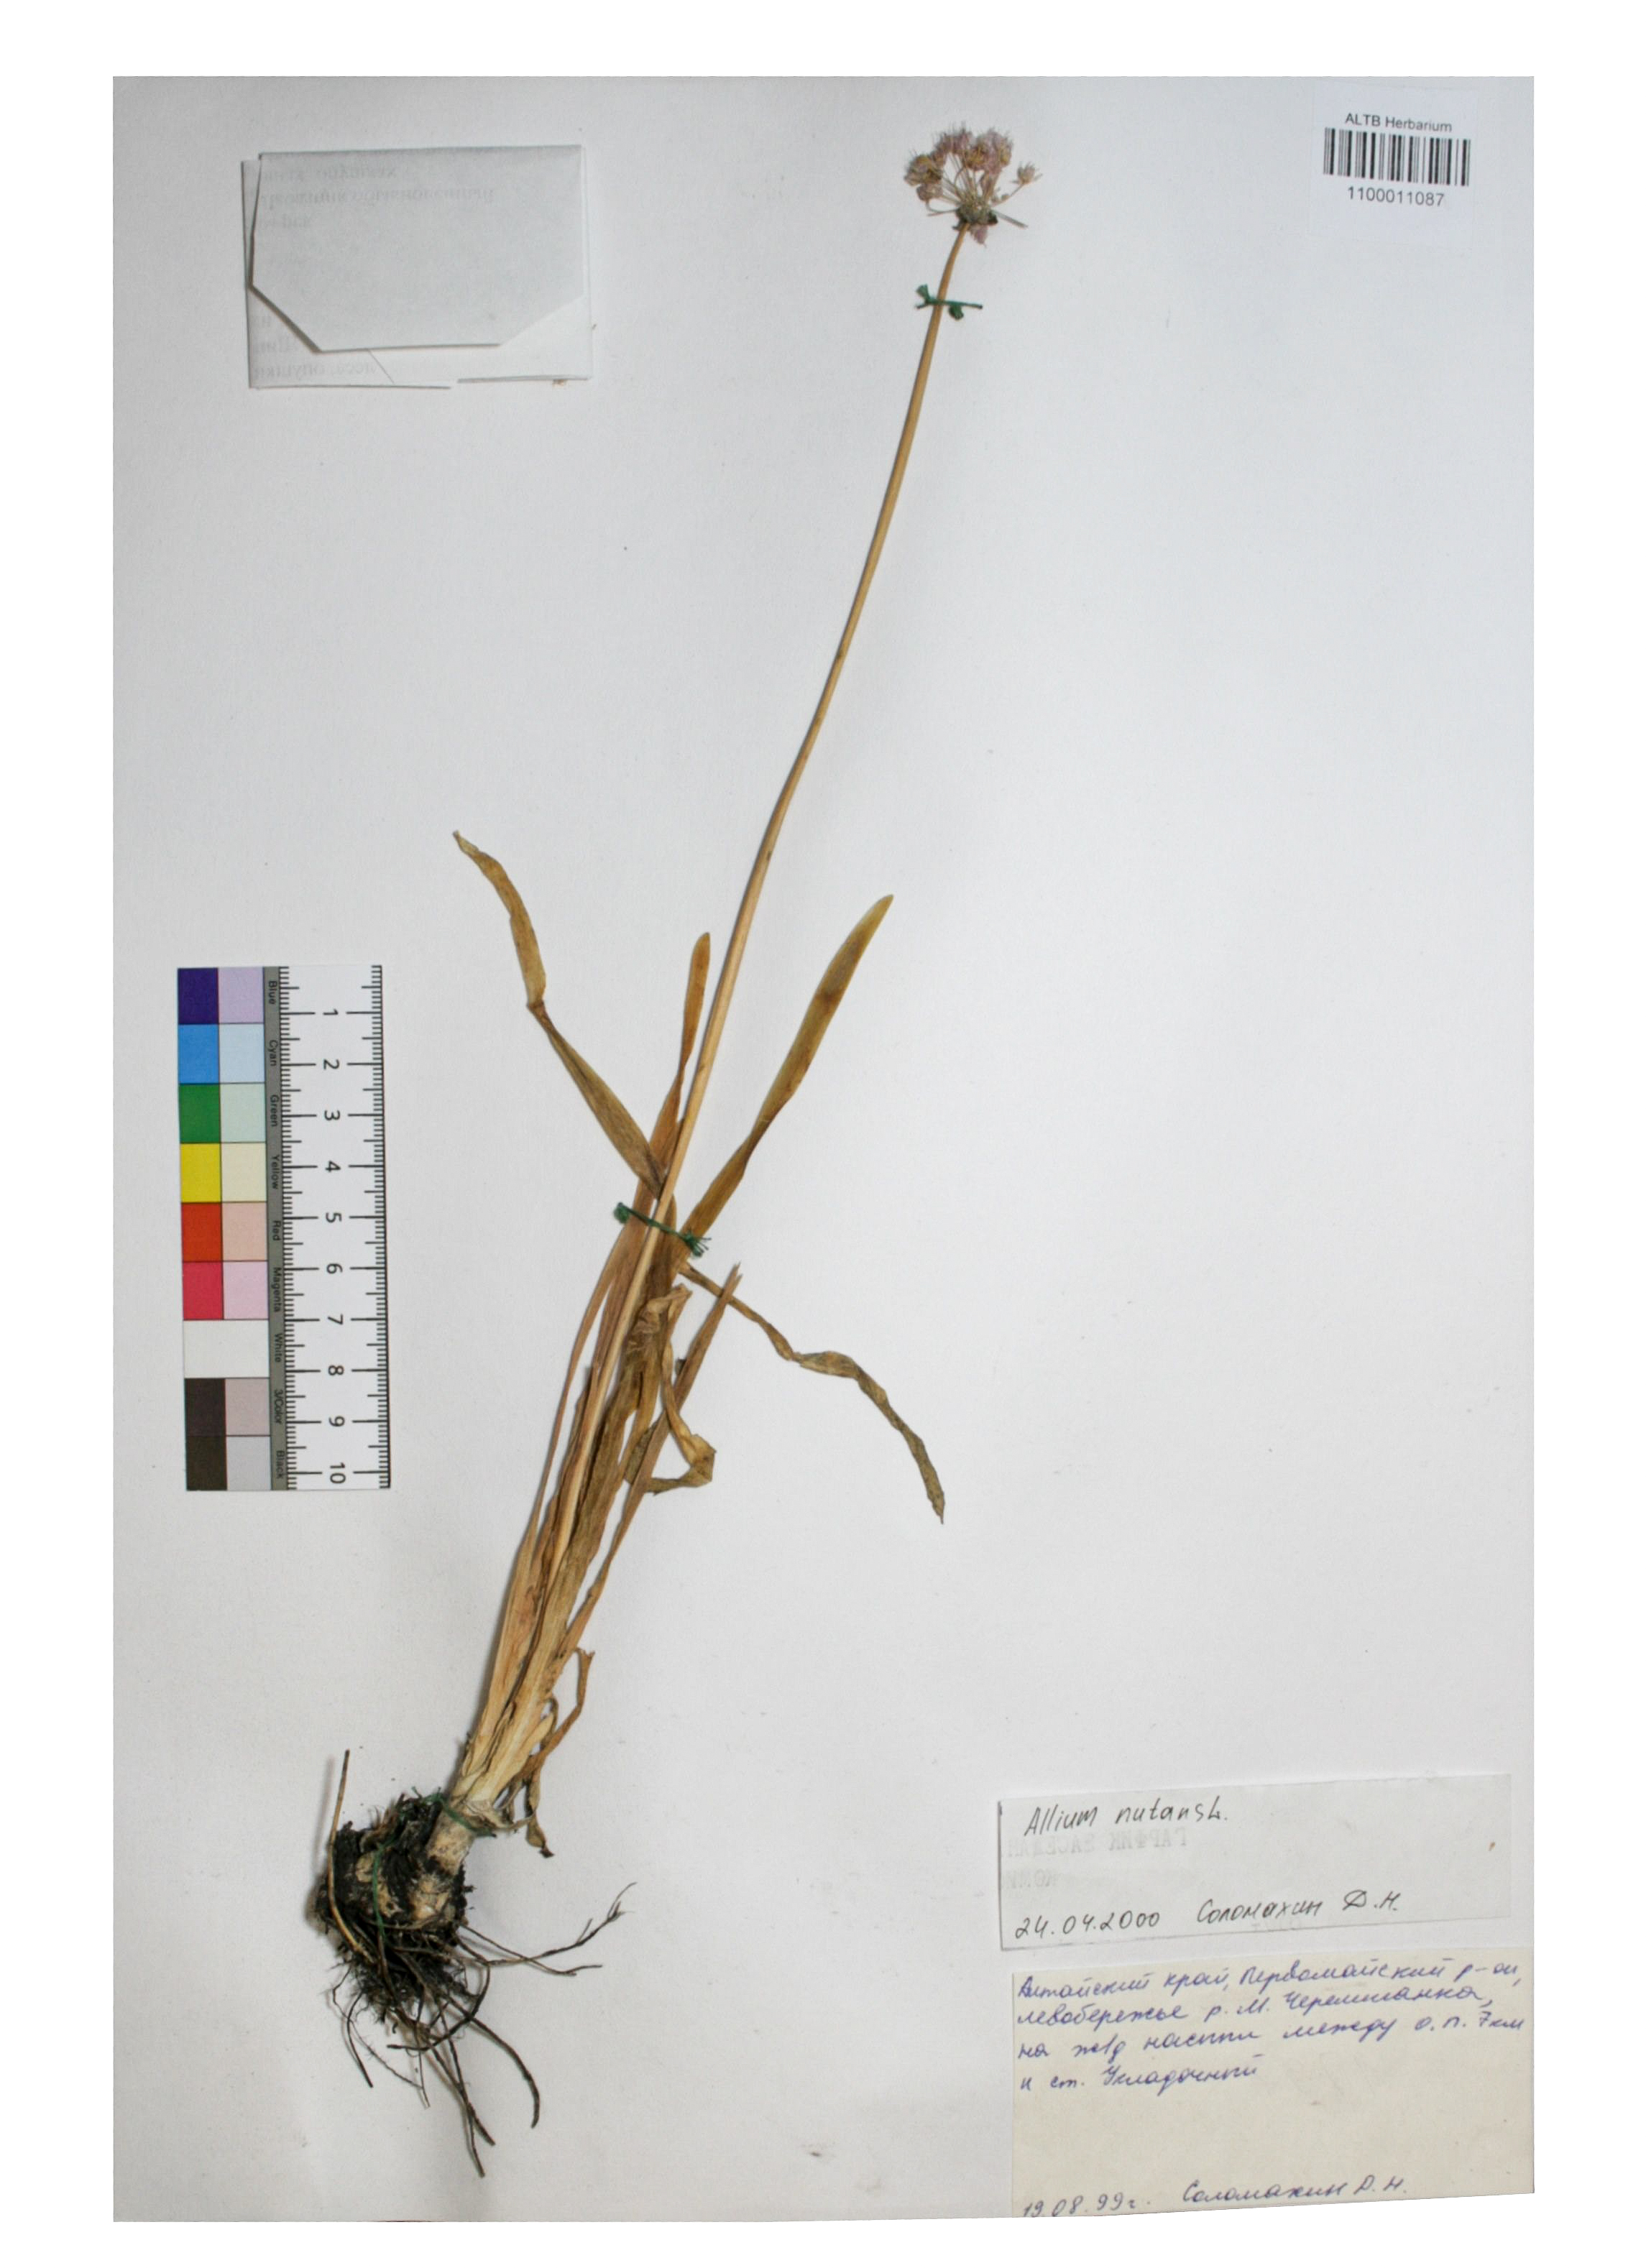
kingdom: Plantae
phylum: Tracheophyta
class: Liliopsida
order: Asparagales
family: Amaryllidaceae
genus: Allium
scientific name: Allium nutans
